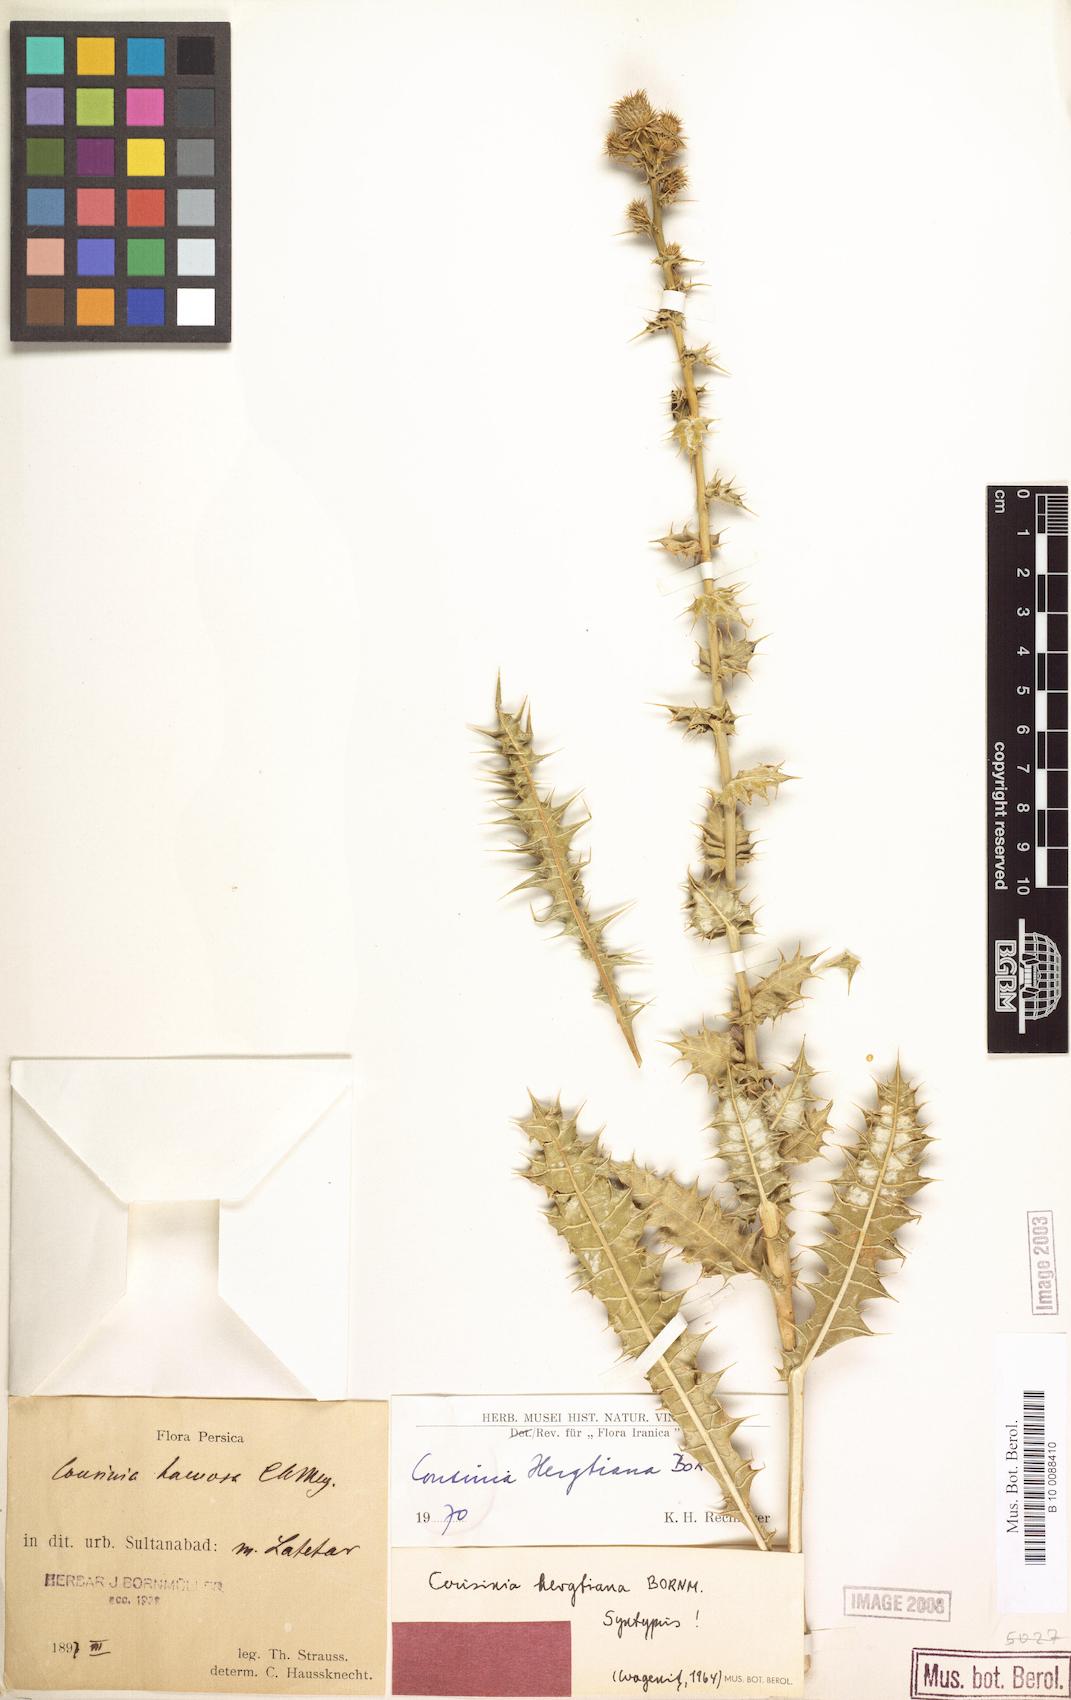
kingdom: Plantae
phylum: Tracheophyta
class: Magnoliopsida
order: Asterales
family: Asteraceae
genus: Cousinia
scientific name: Cousinia hergtiana
